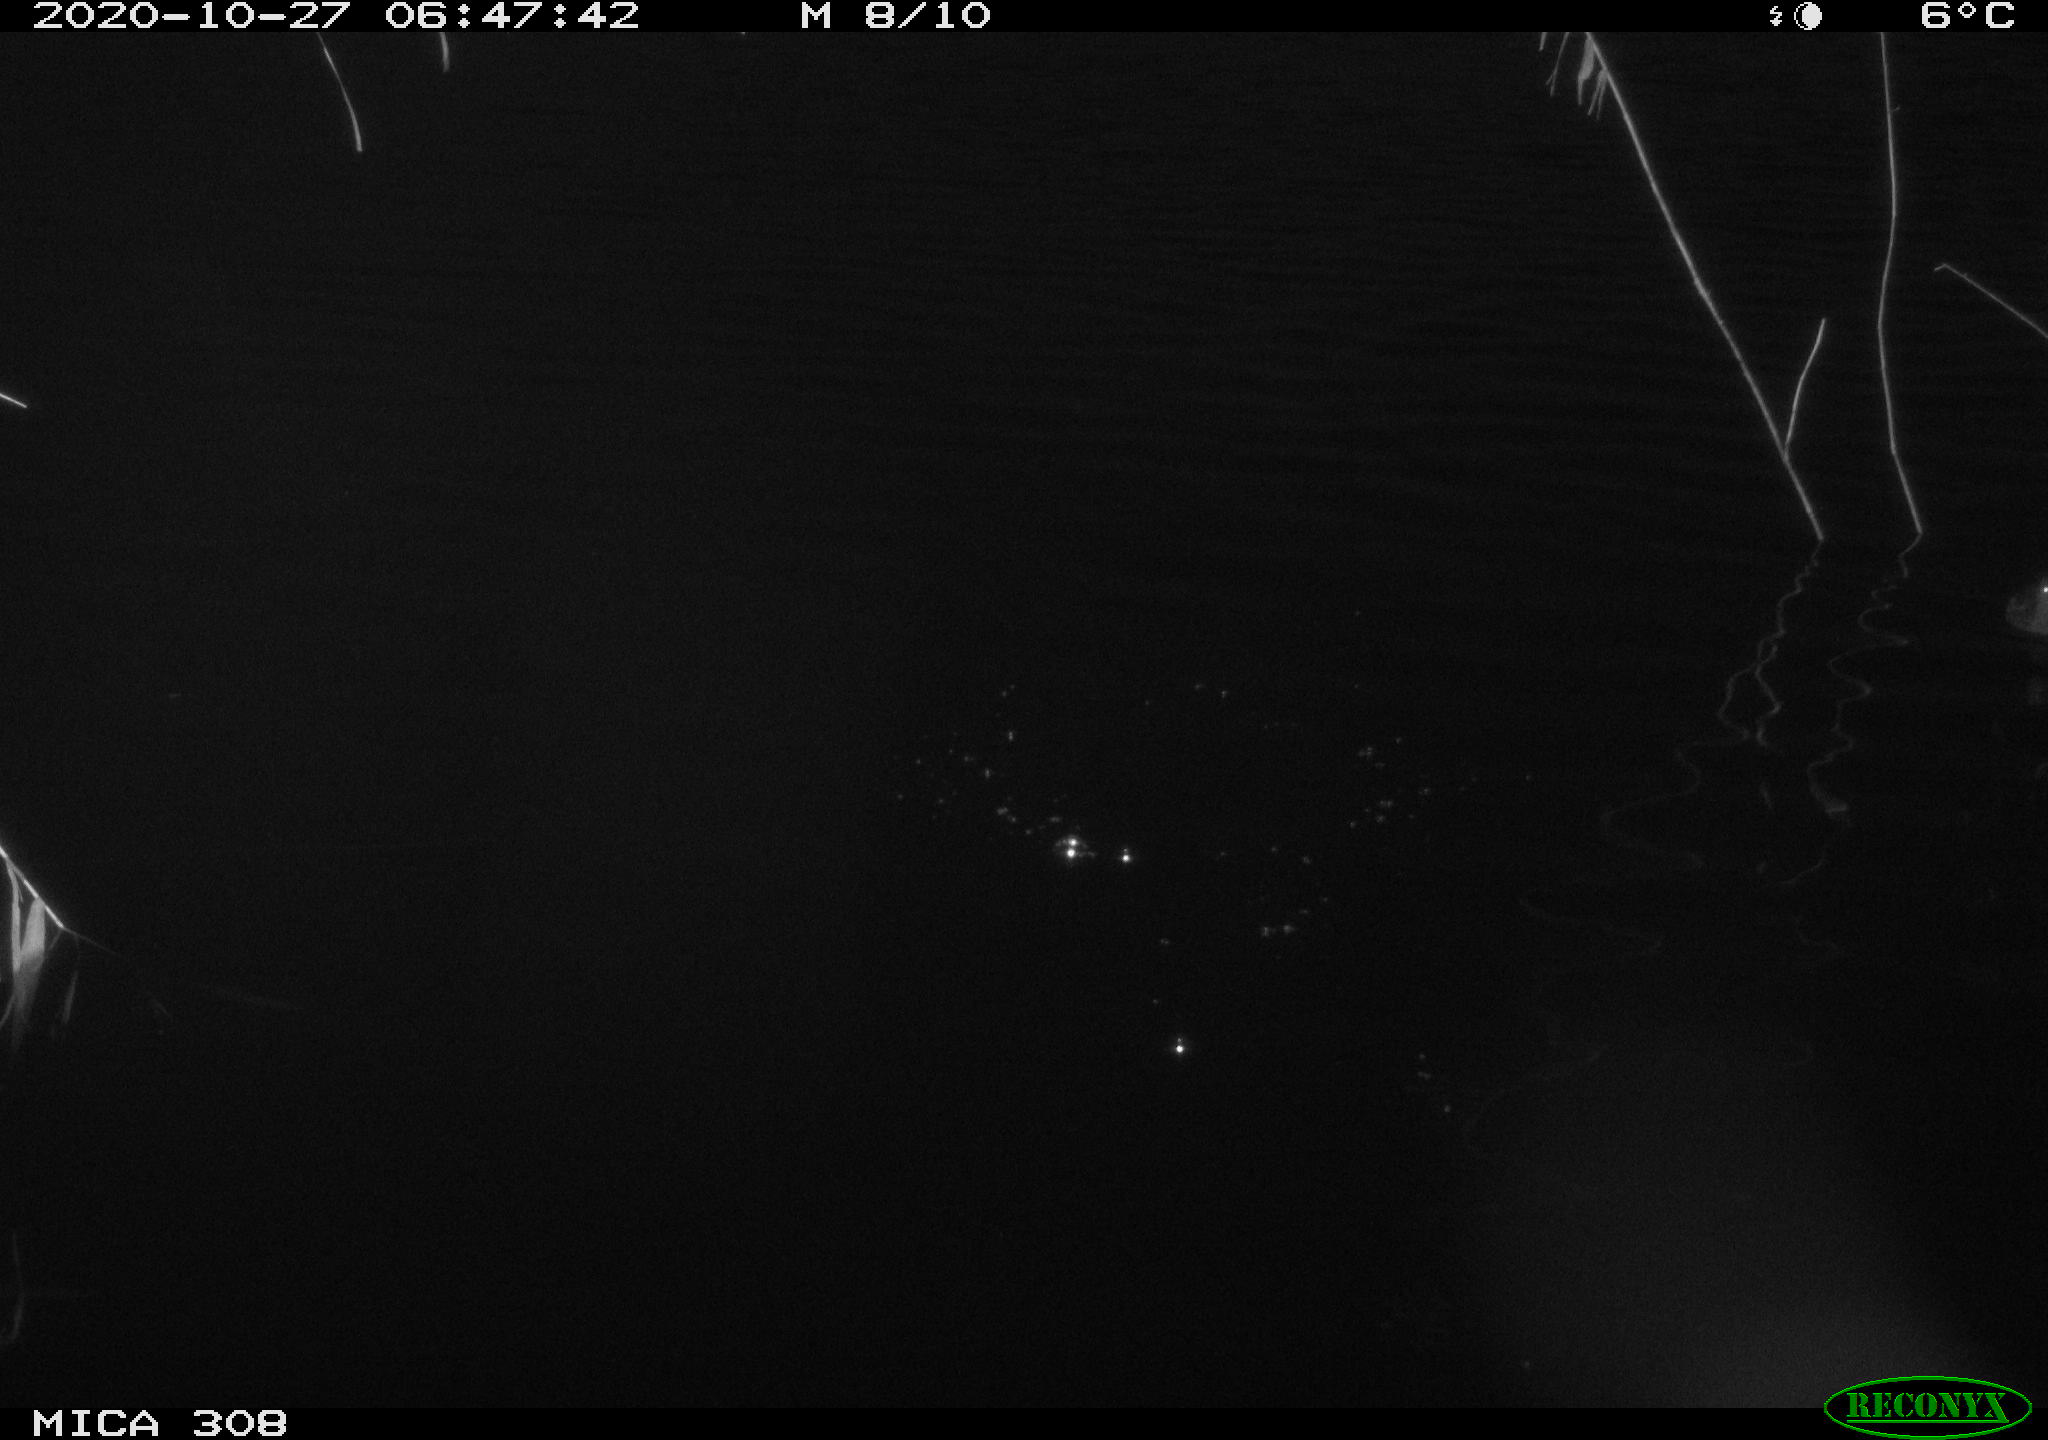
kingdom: Animalia
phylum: Chordata
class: Aves
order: Gruiformes
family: Rallidae
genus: Gallinula
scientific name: Gallinula chloropus
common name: Common moorhen
